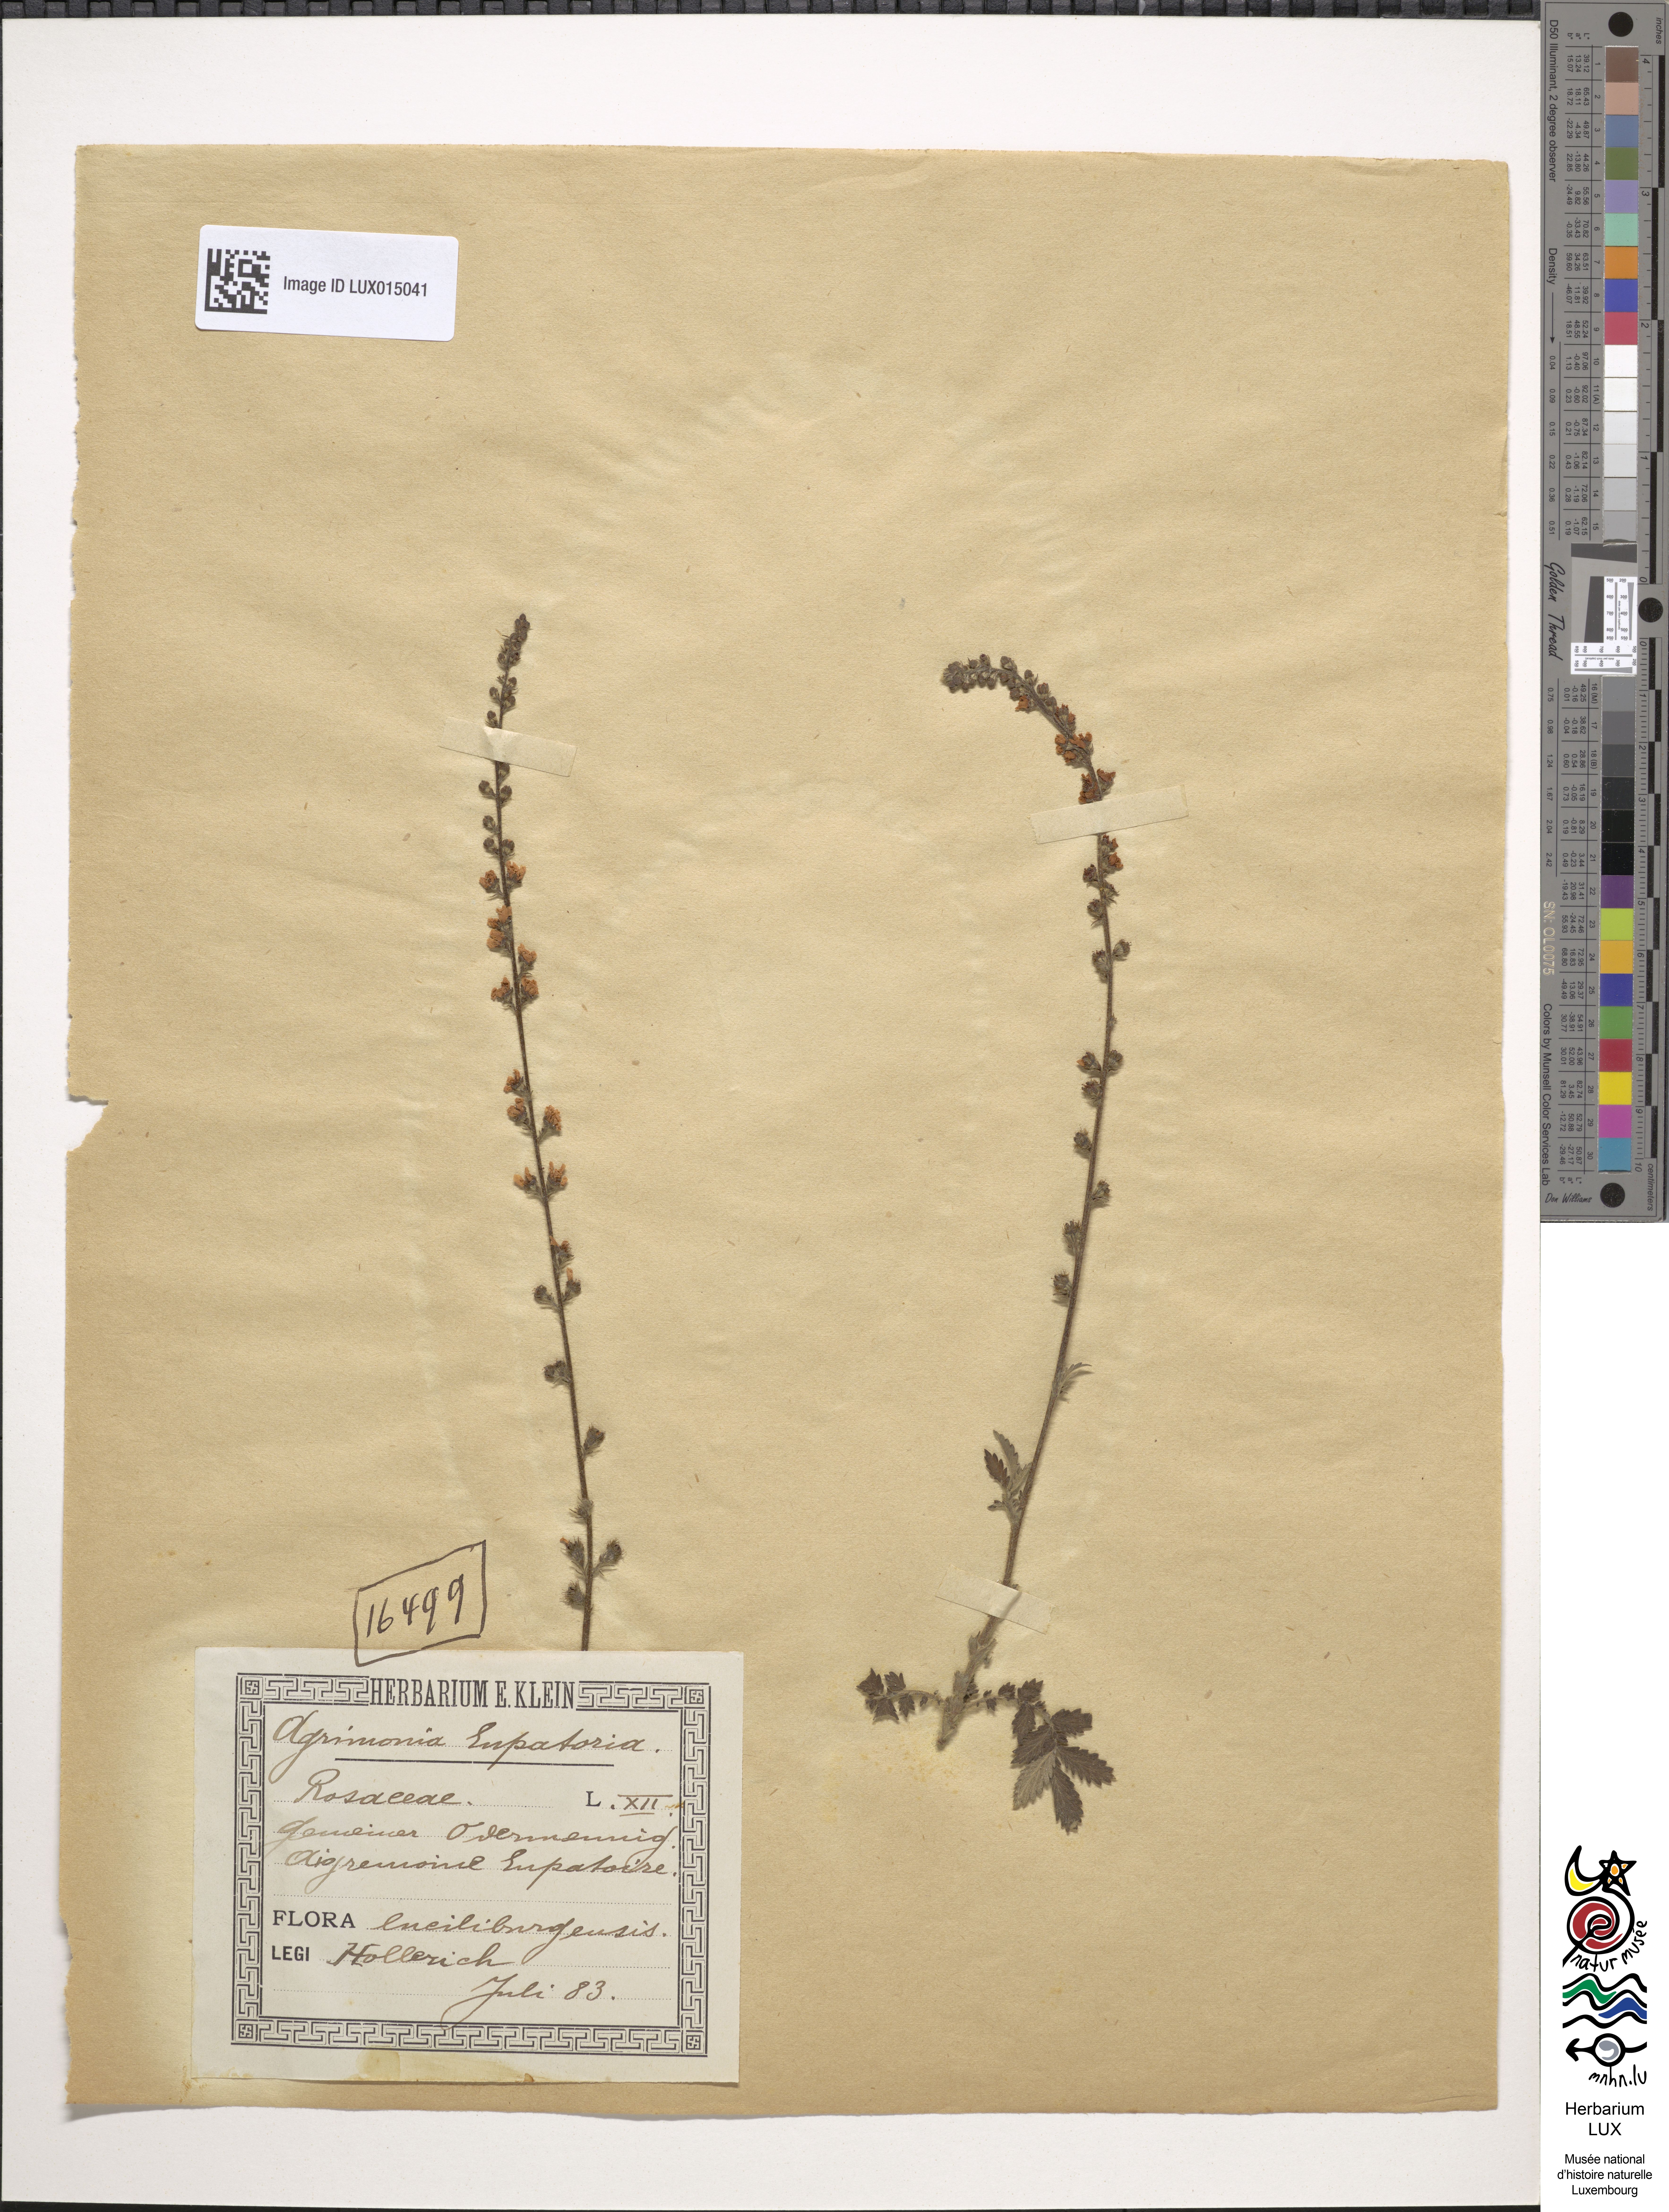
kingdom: Plantae
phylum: Tracheophyta
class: Magnoliopsida
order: Rosales
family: Rosaceae
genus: Agrimonia
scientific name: Agrimonia eupatoria
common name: Agrimony
